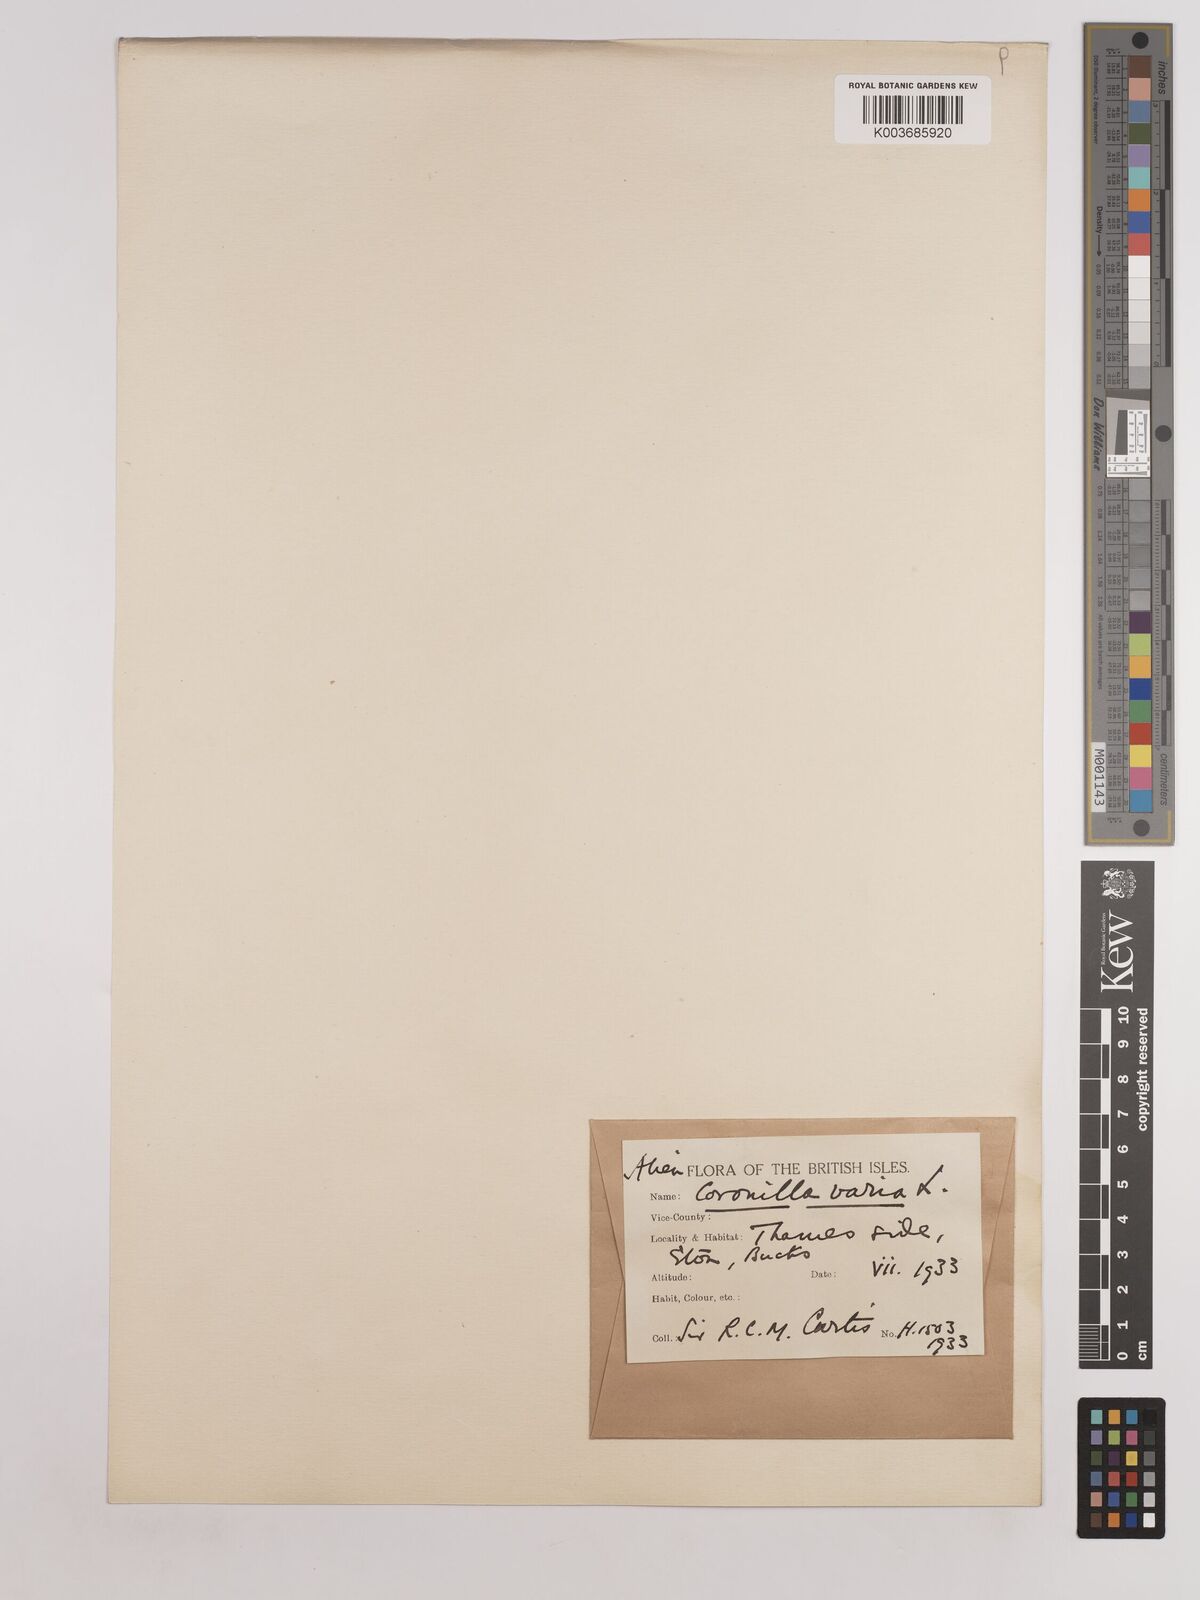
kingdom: Plantae
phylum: Tracheophyta
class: Magnoliopsida
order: Fabales
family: Fabaceae
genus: Coronilla
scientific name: Coronilla varia
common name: Crownvetch
